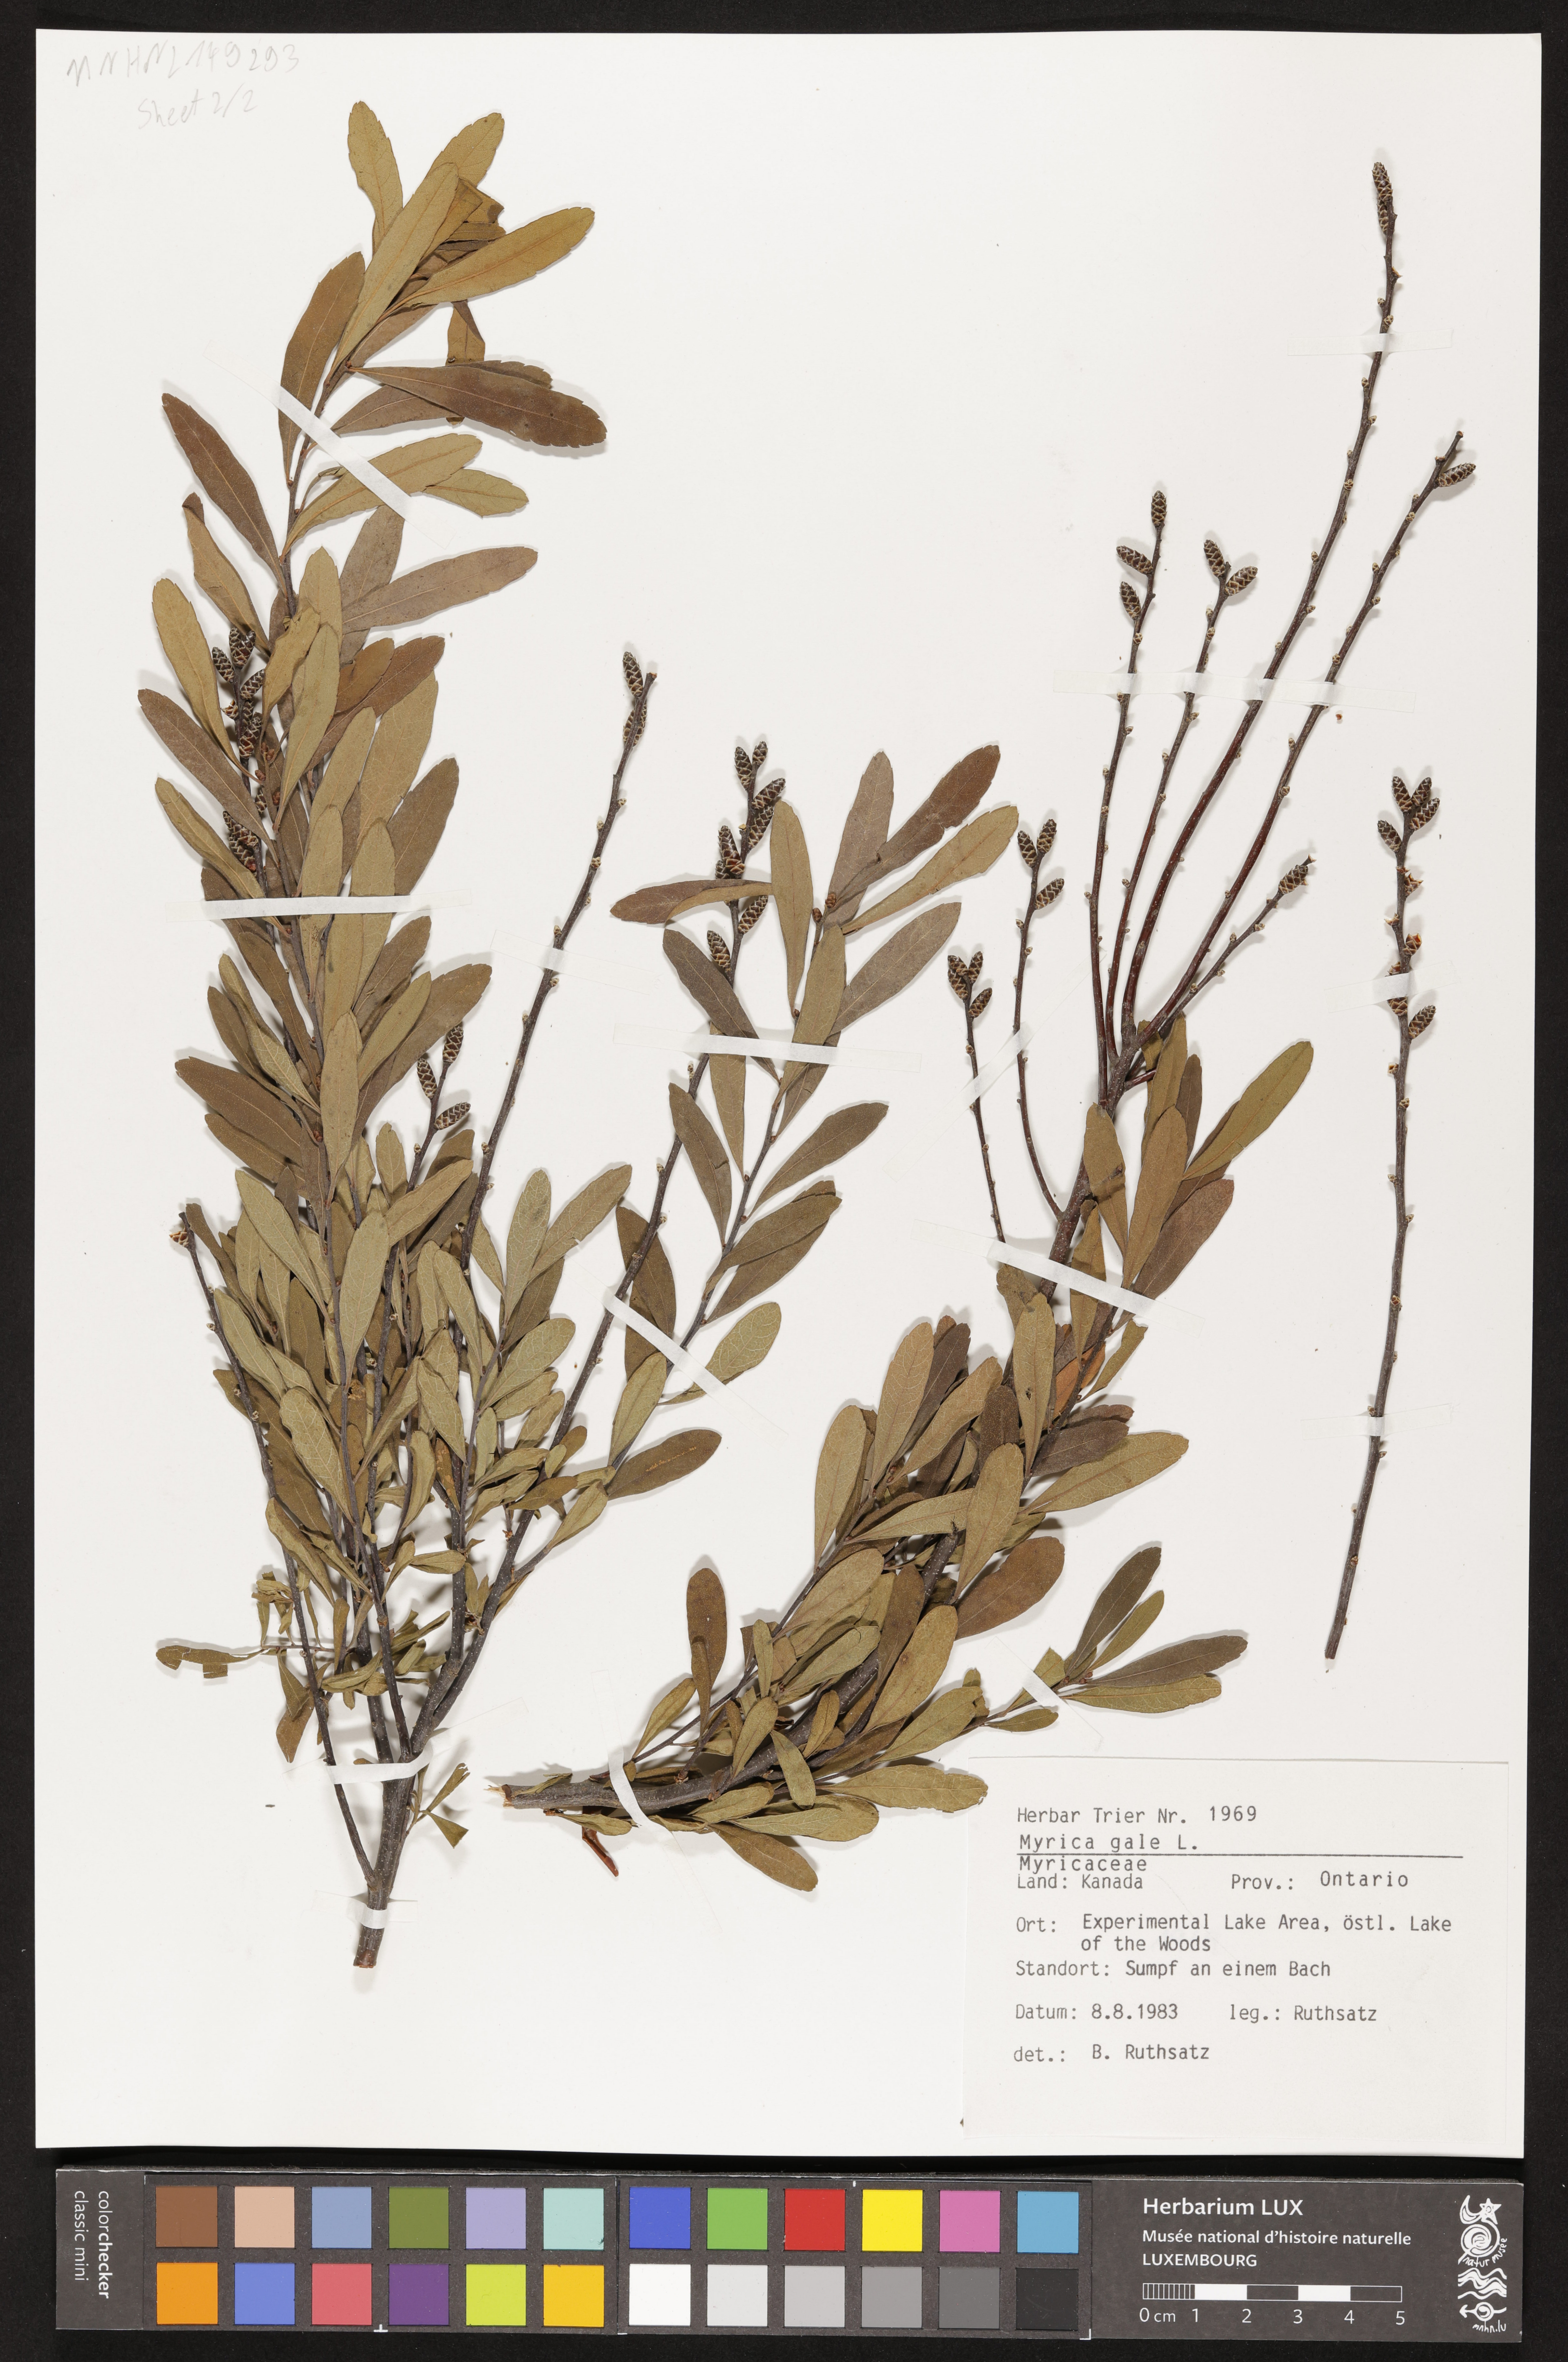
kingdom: Plantae
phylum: Tracheophyta
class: Magnoliopsida
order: Fagales
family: Myricaceae
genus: Myrica
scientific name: Myrica gale
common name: Sweet gale
